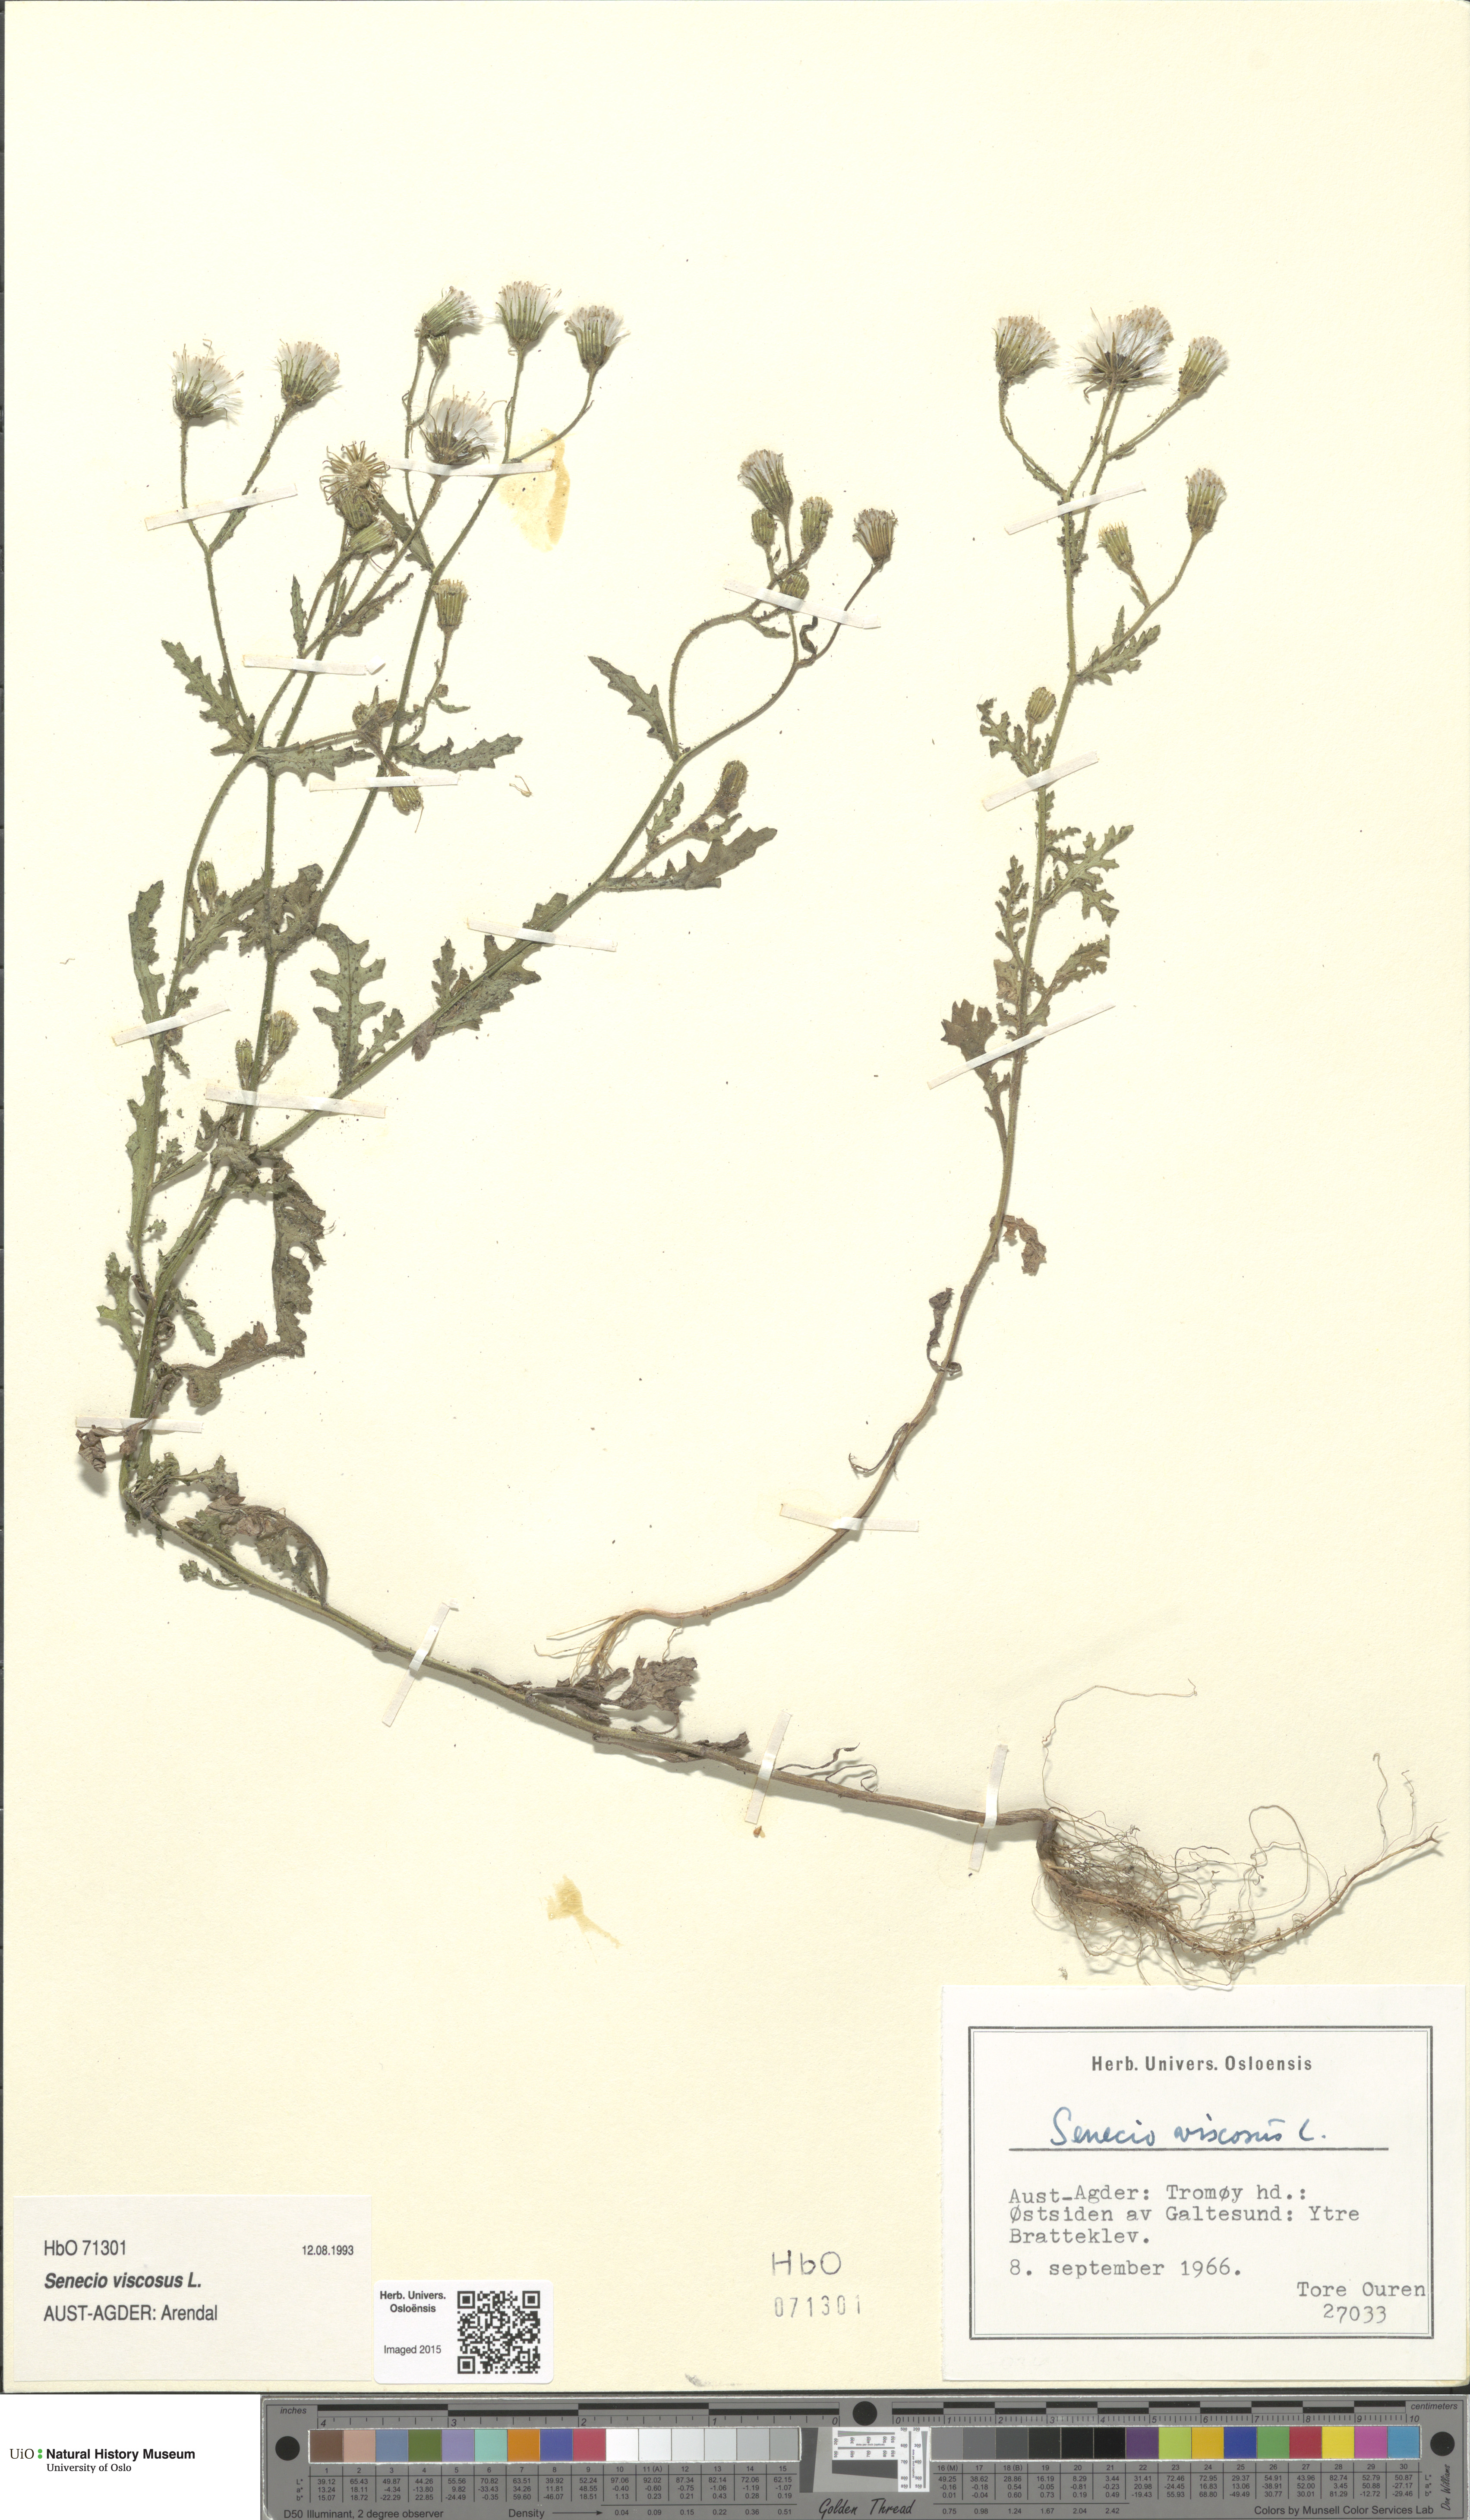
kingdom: Plantae
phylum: Tracheophyta
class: Magnoliopsida
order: Asterales
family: Asteraceae
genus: Senecio
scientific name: Senecio viscosus
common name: Sticky groundsel
